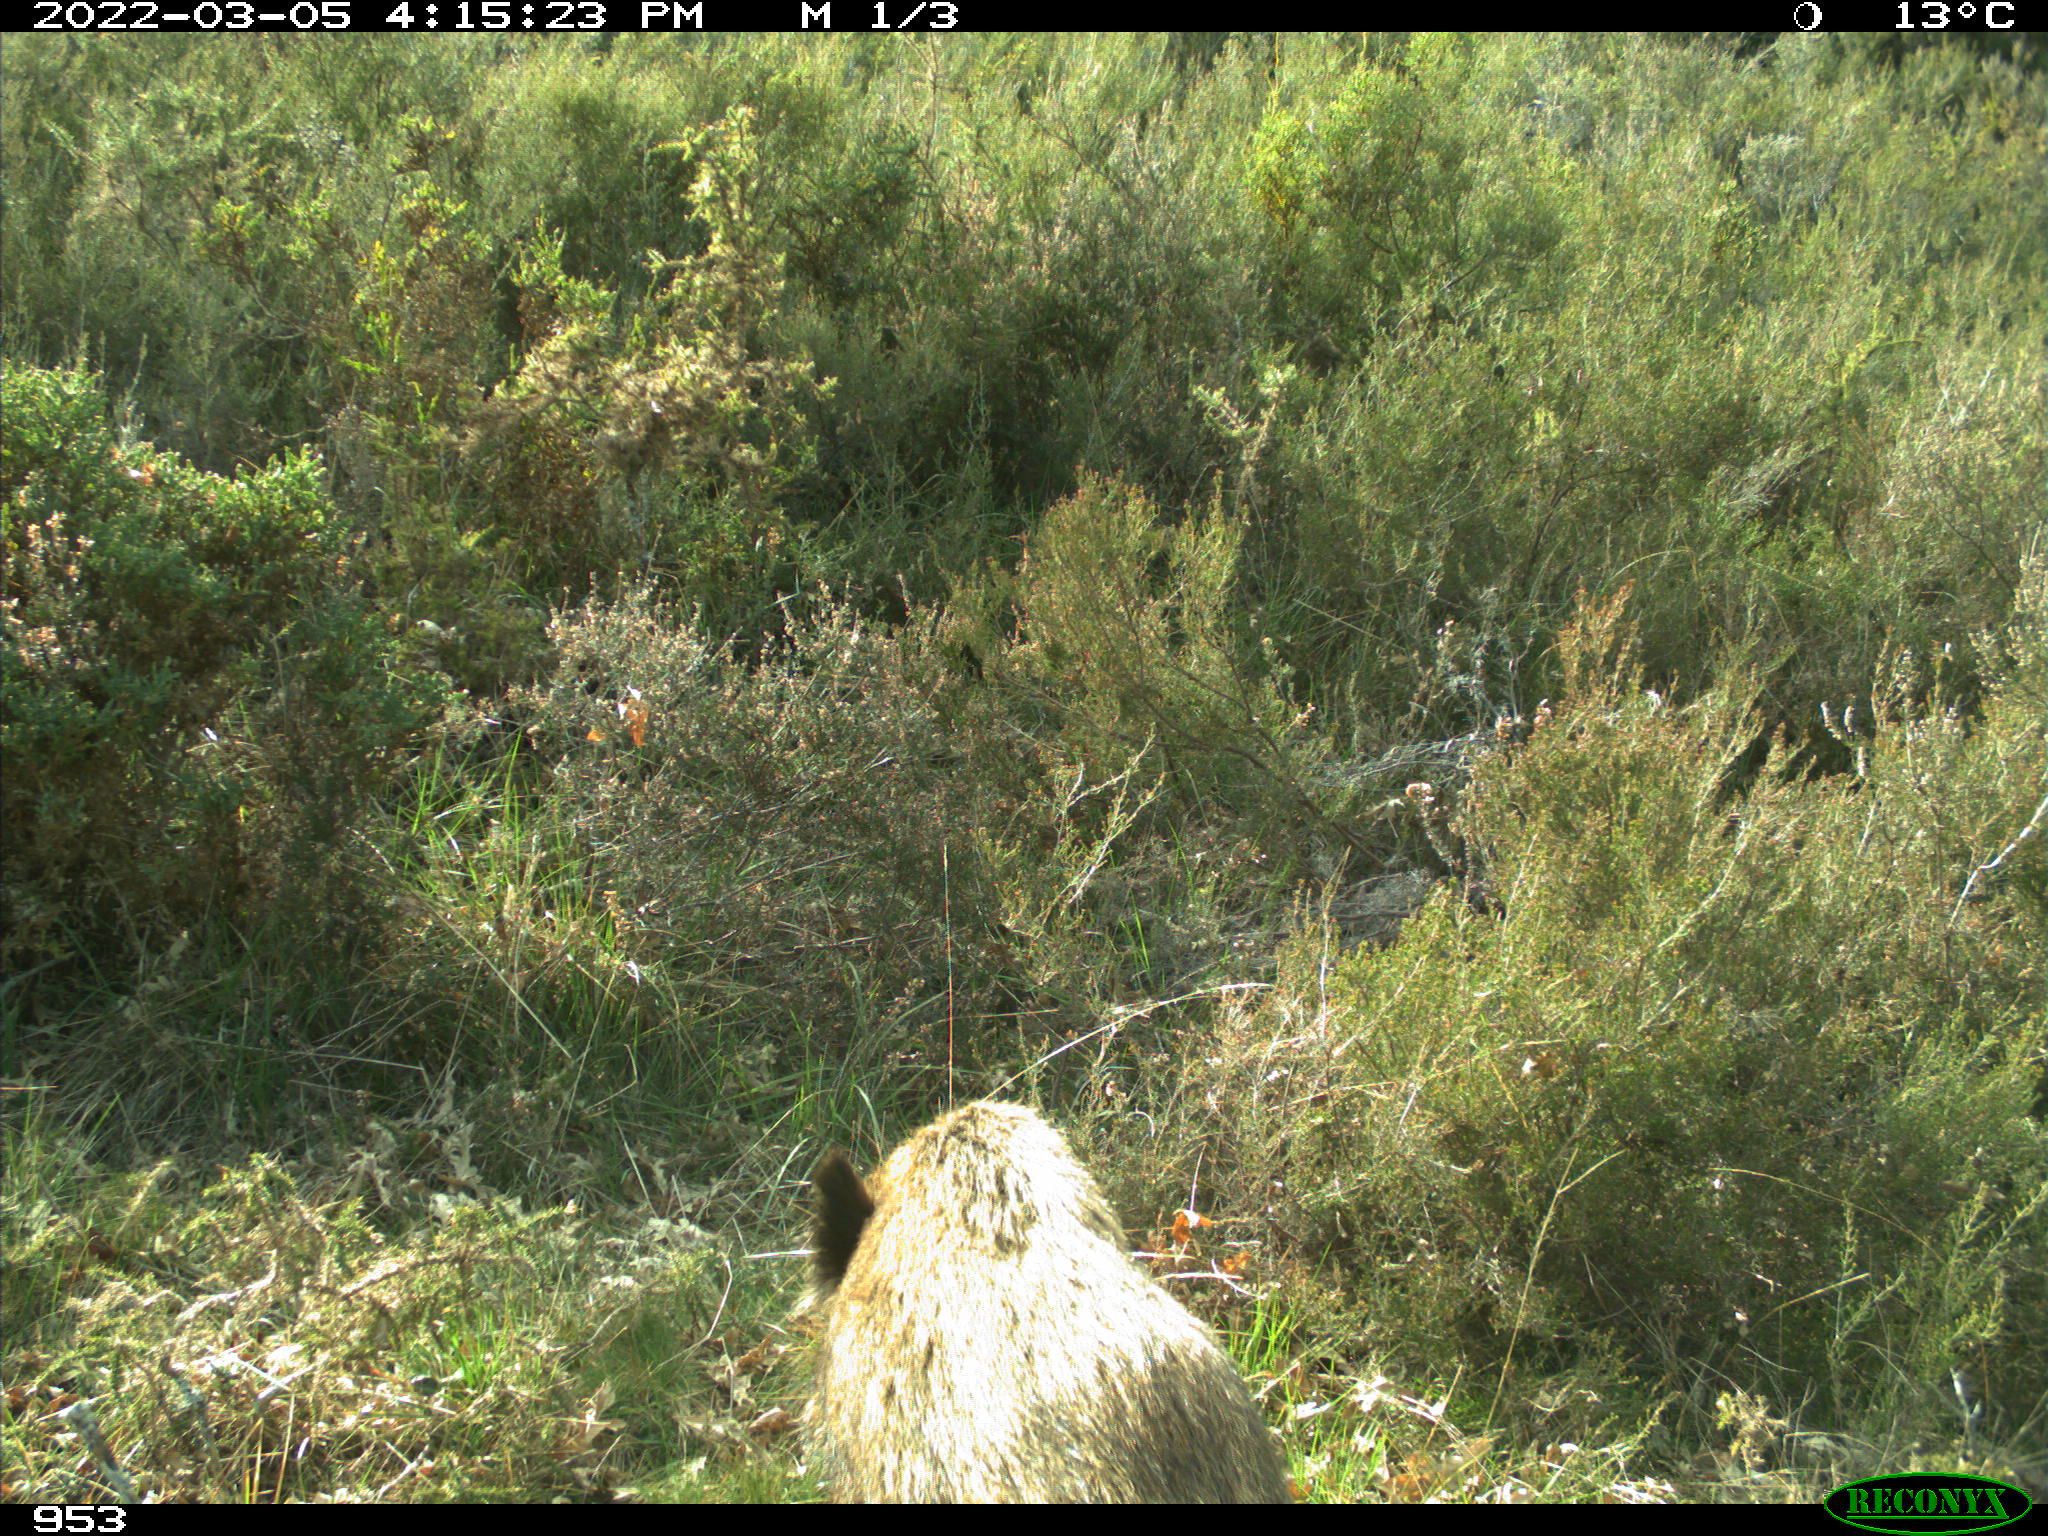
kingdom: Animalia
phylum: Chordata
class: Mammalia
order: Artiodactyla
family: Suidae
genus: Sus
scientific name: Sus scrofa
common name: Wild boar
